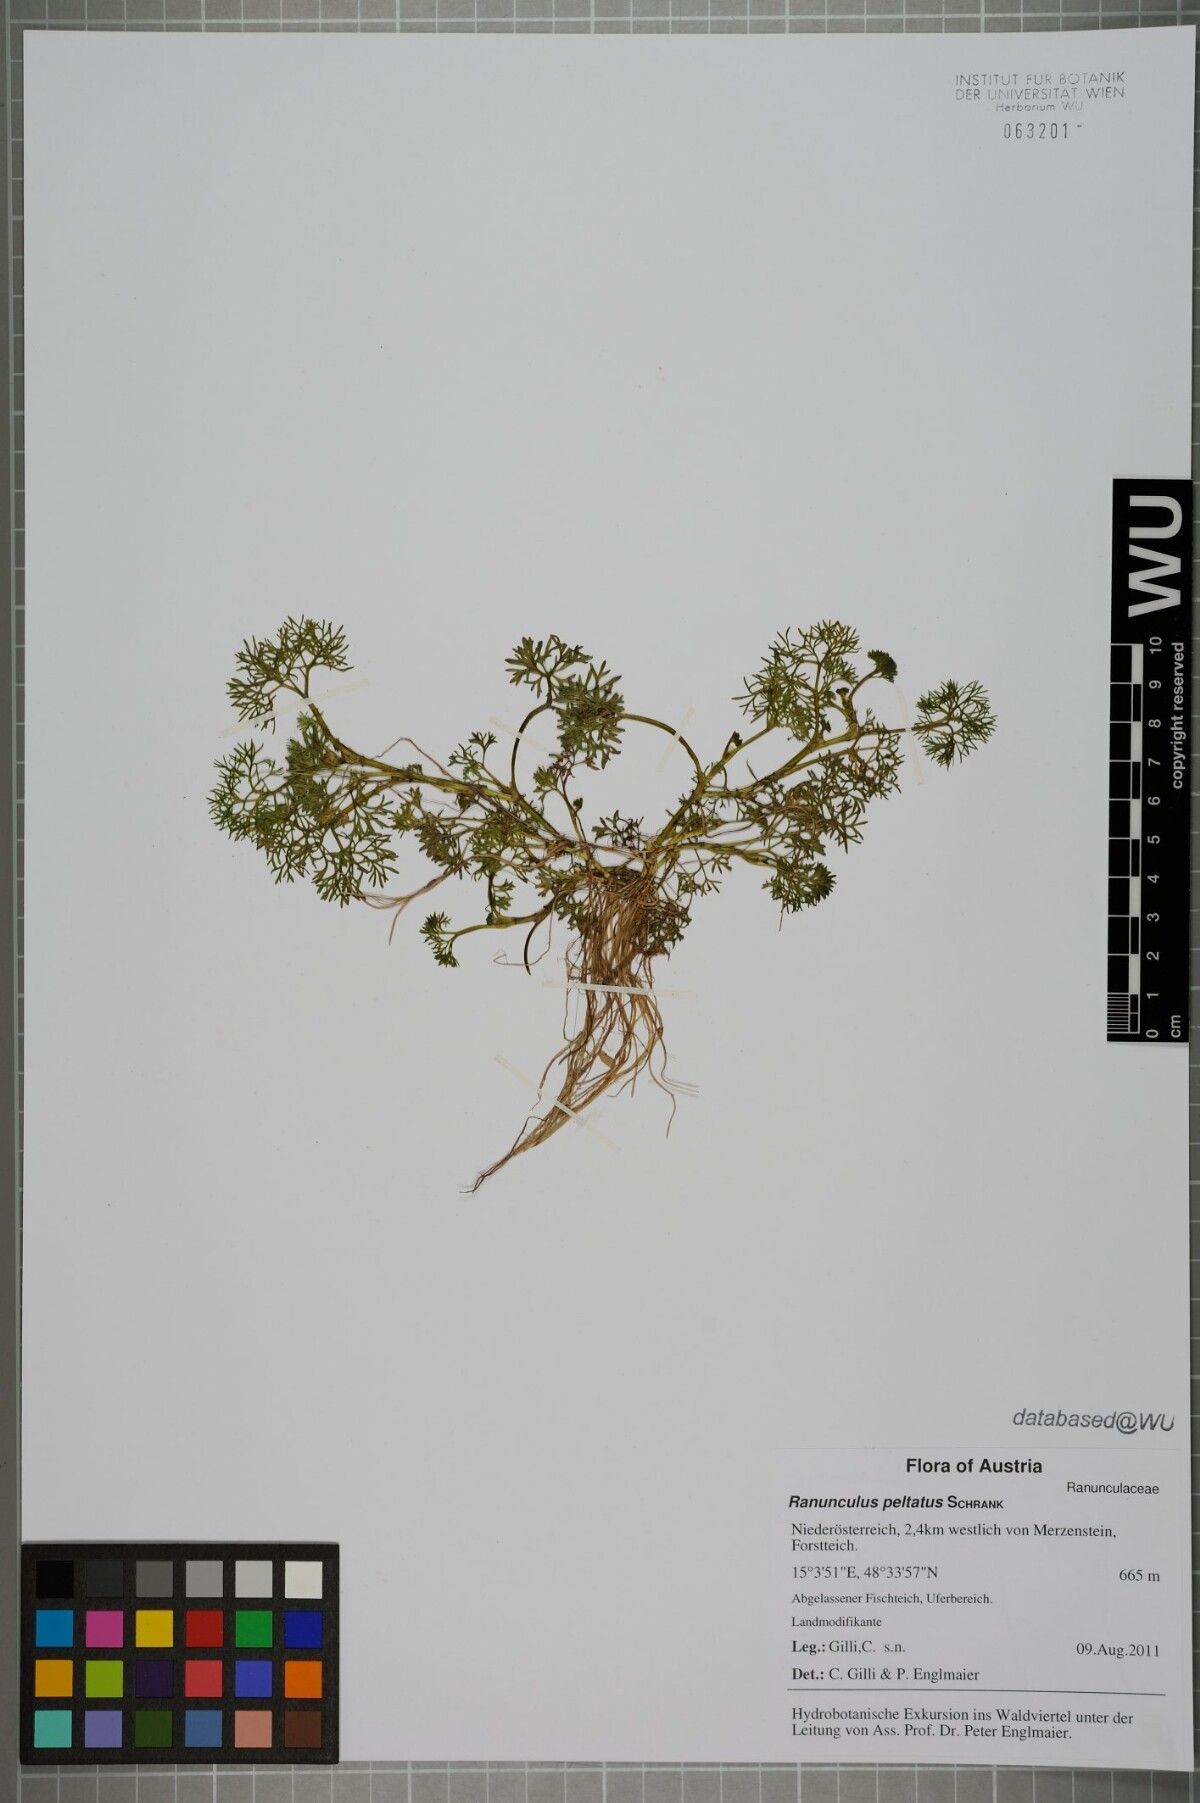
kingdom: Plantae
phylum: Tracheophyta
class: Magnoliopsida
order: Ranunculales
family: Ranunculaceae
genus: Ranunculus
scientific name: Ranunculus peltatus
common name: Pond water-crowfoot
